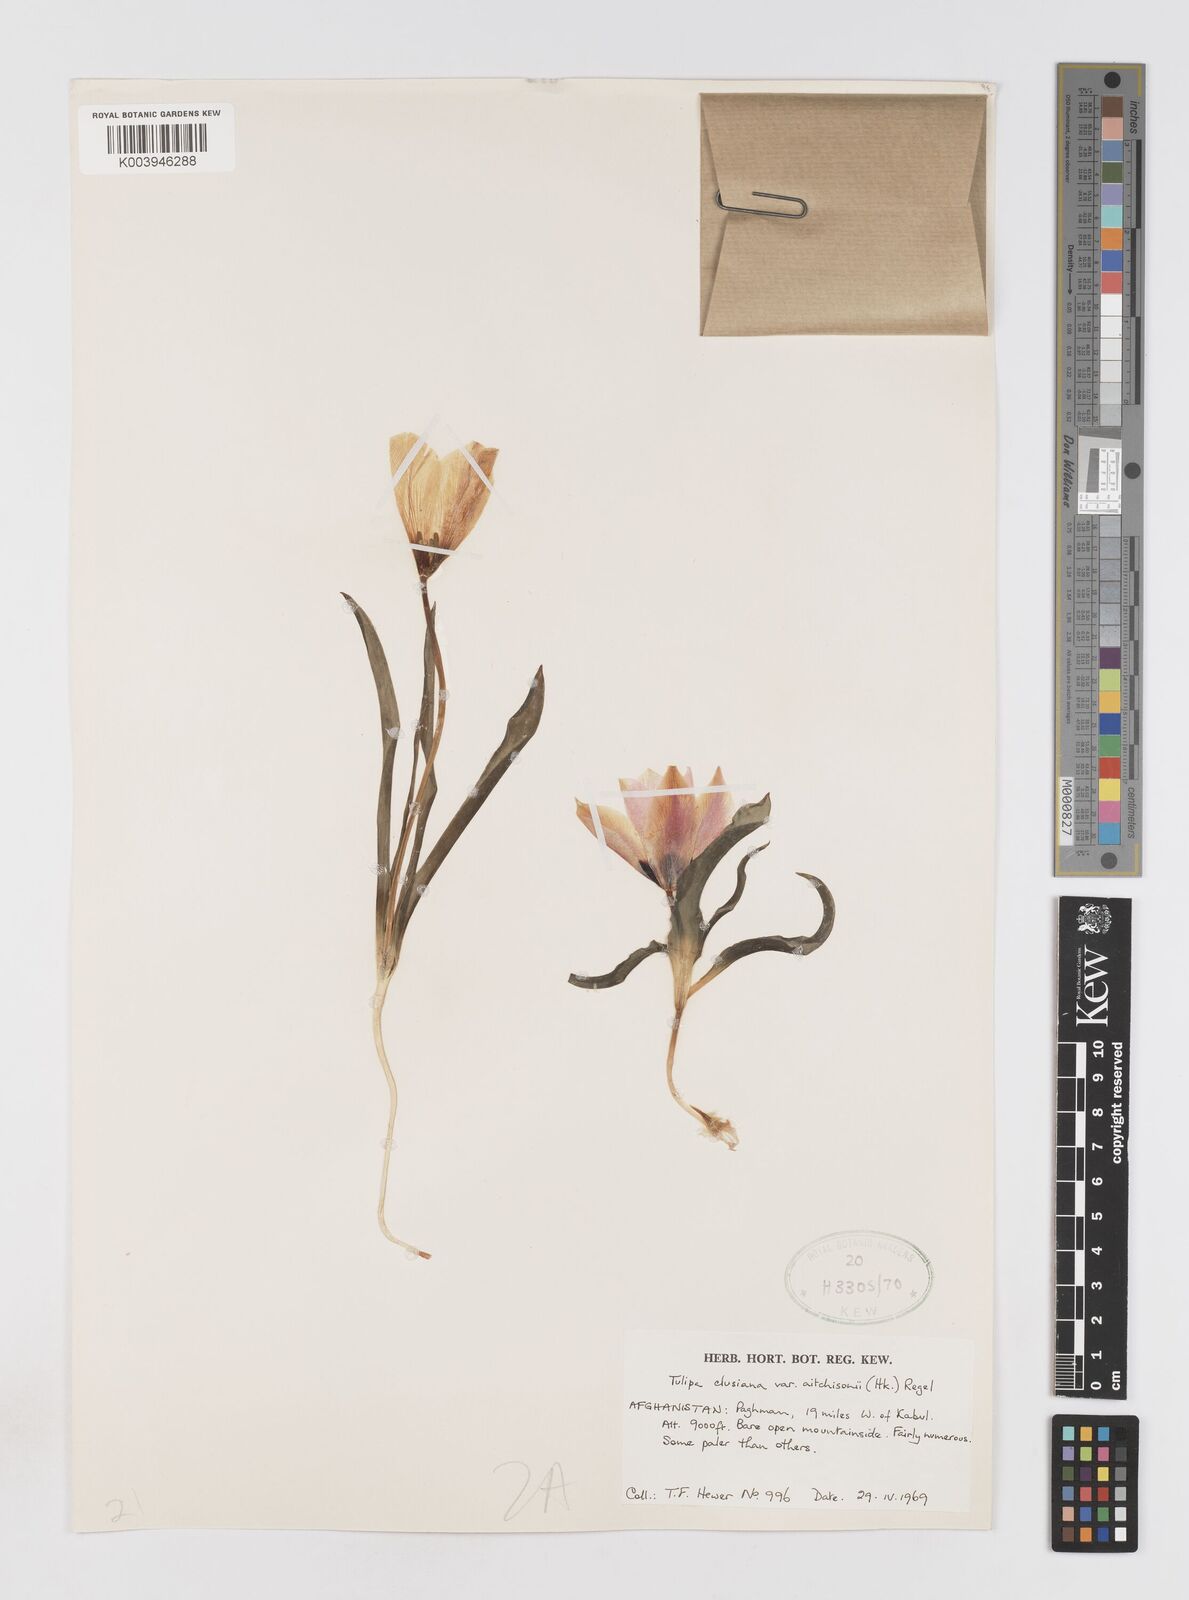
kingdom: Plantae
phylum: Tracheophyta
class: Liliopsida
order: Liliales
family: Liliaceae
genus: Tulipa
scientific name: Tulipa clusiana
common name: Lady tulip
